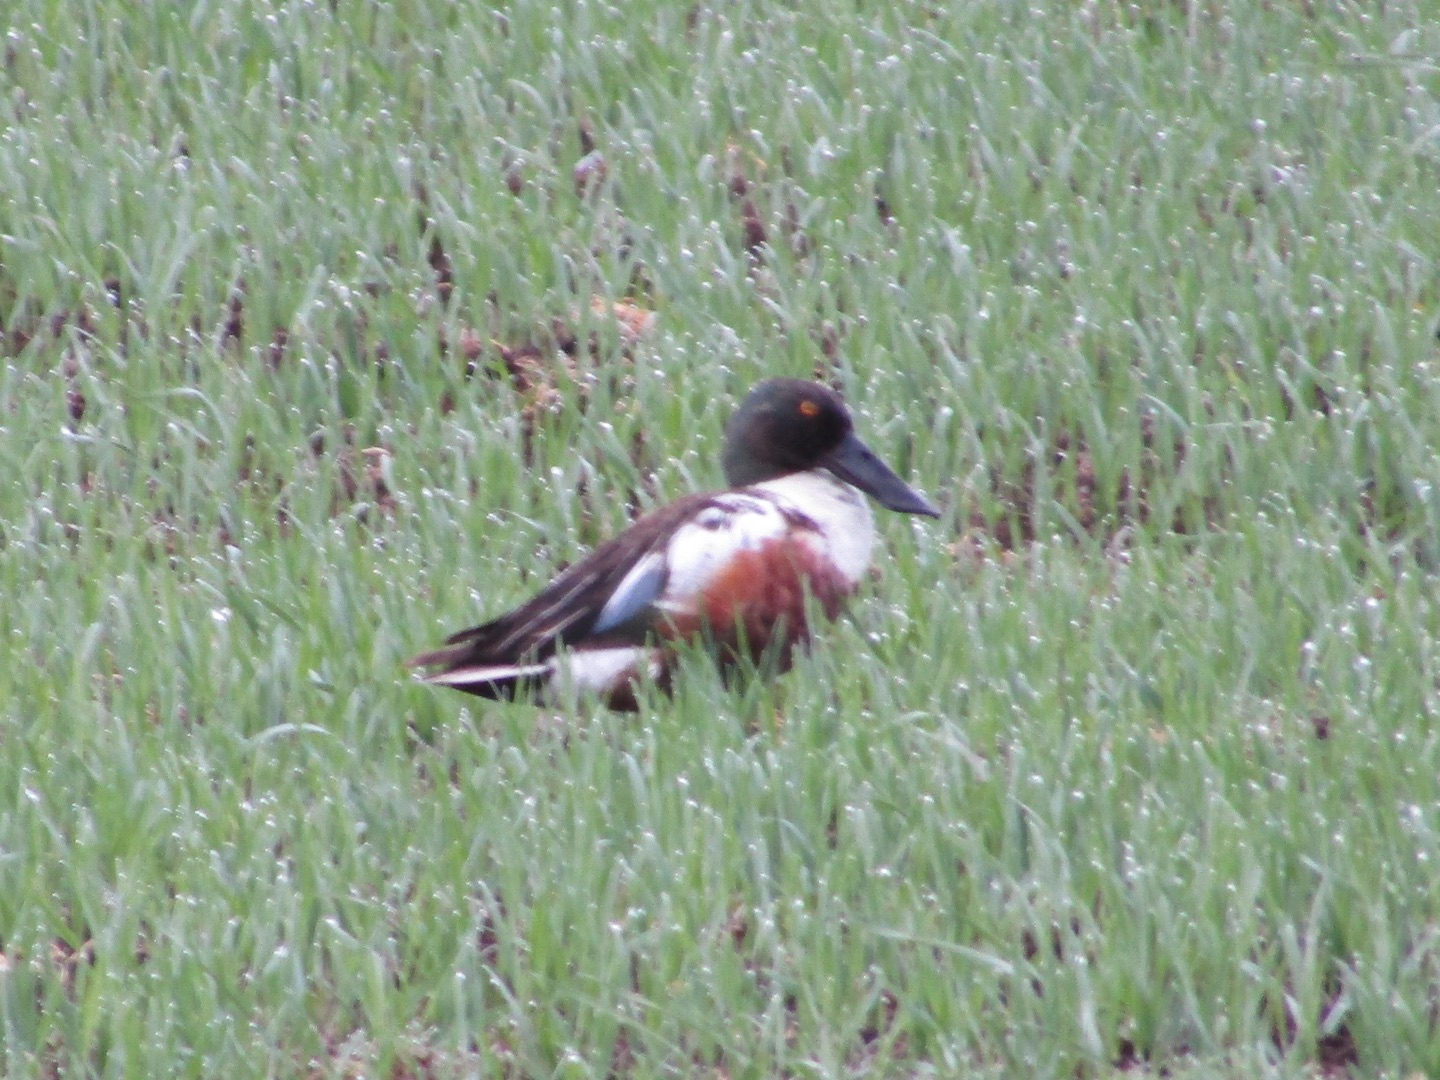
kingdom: Animalia
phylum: Chordata
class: Aves
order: Anseriformes
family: Anatidae
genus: Spatula
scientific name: Spatula clypeata
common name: Skeand
